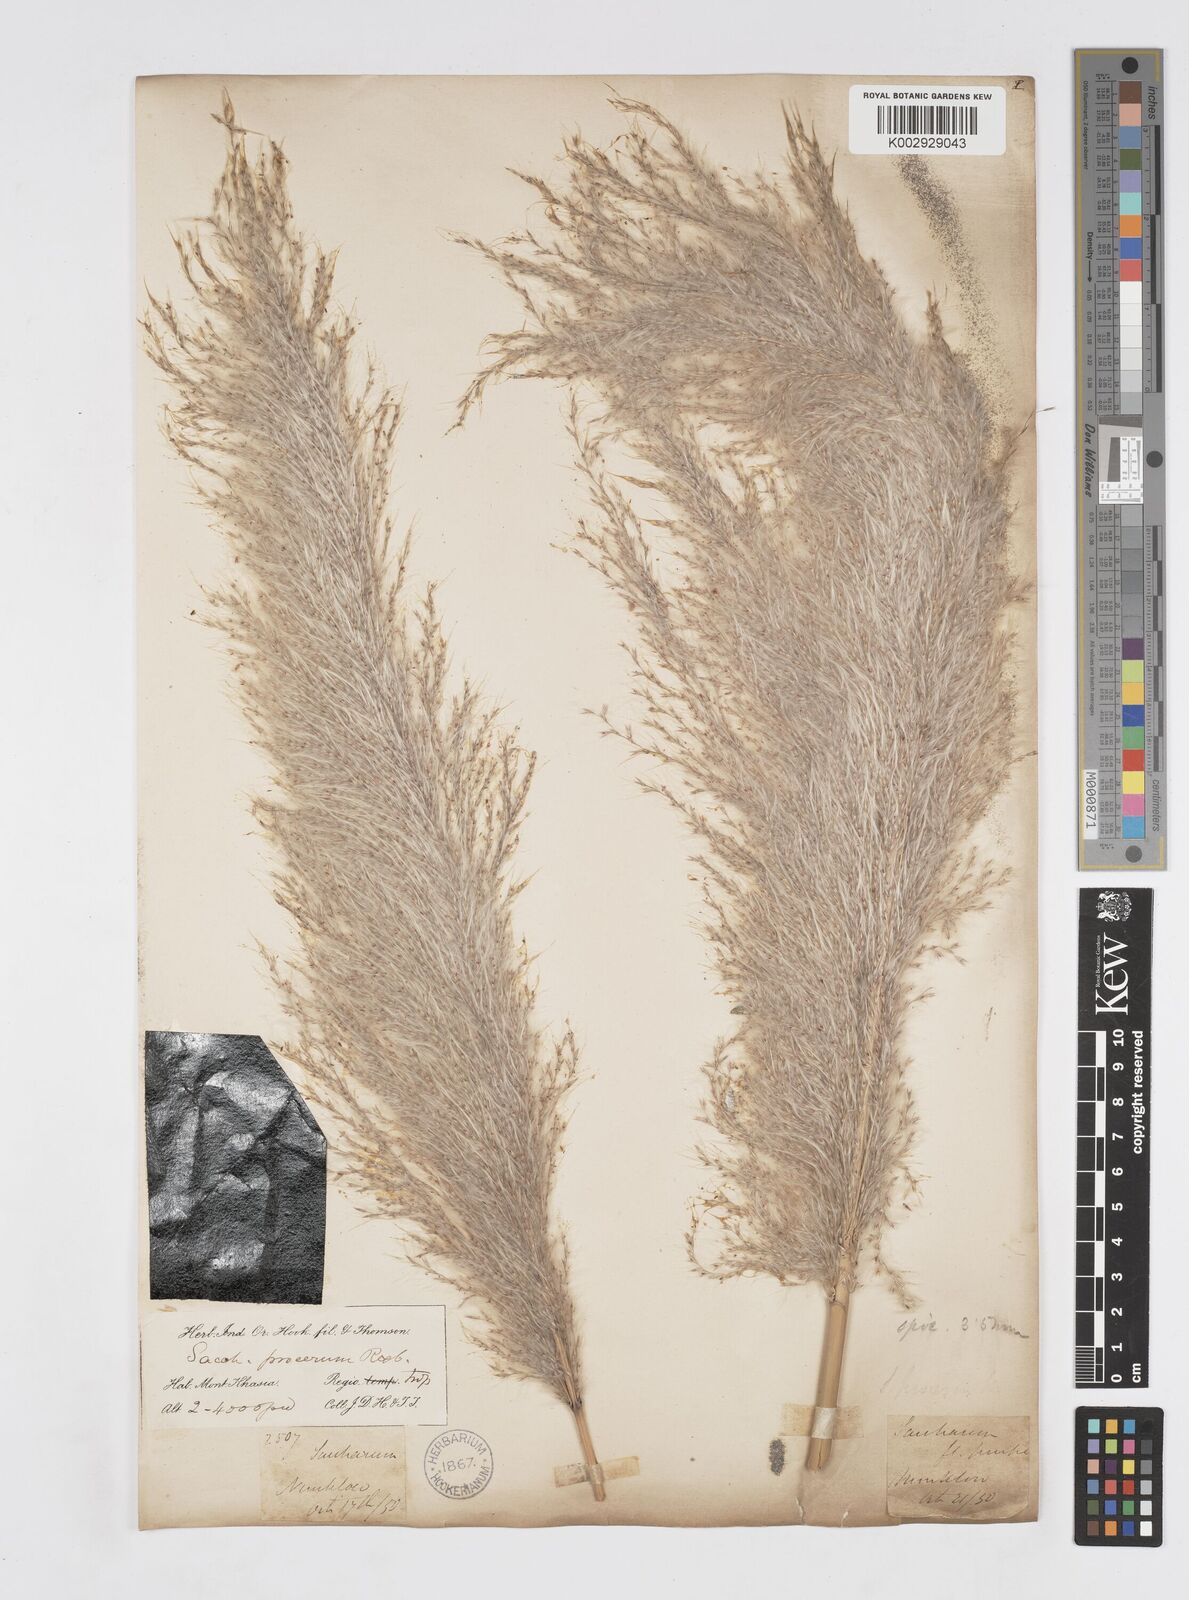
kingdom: Plantae
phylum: Tracheophyta
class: Liliopsida
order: Poales
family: Poaceae
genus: Tripidium
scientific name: Tripidium arundinaceum
